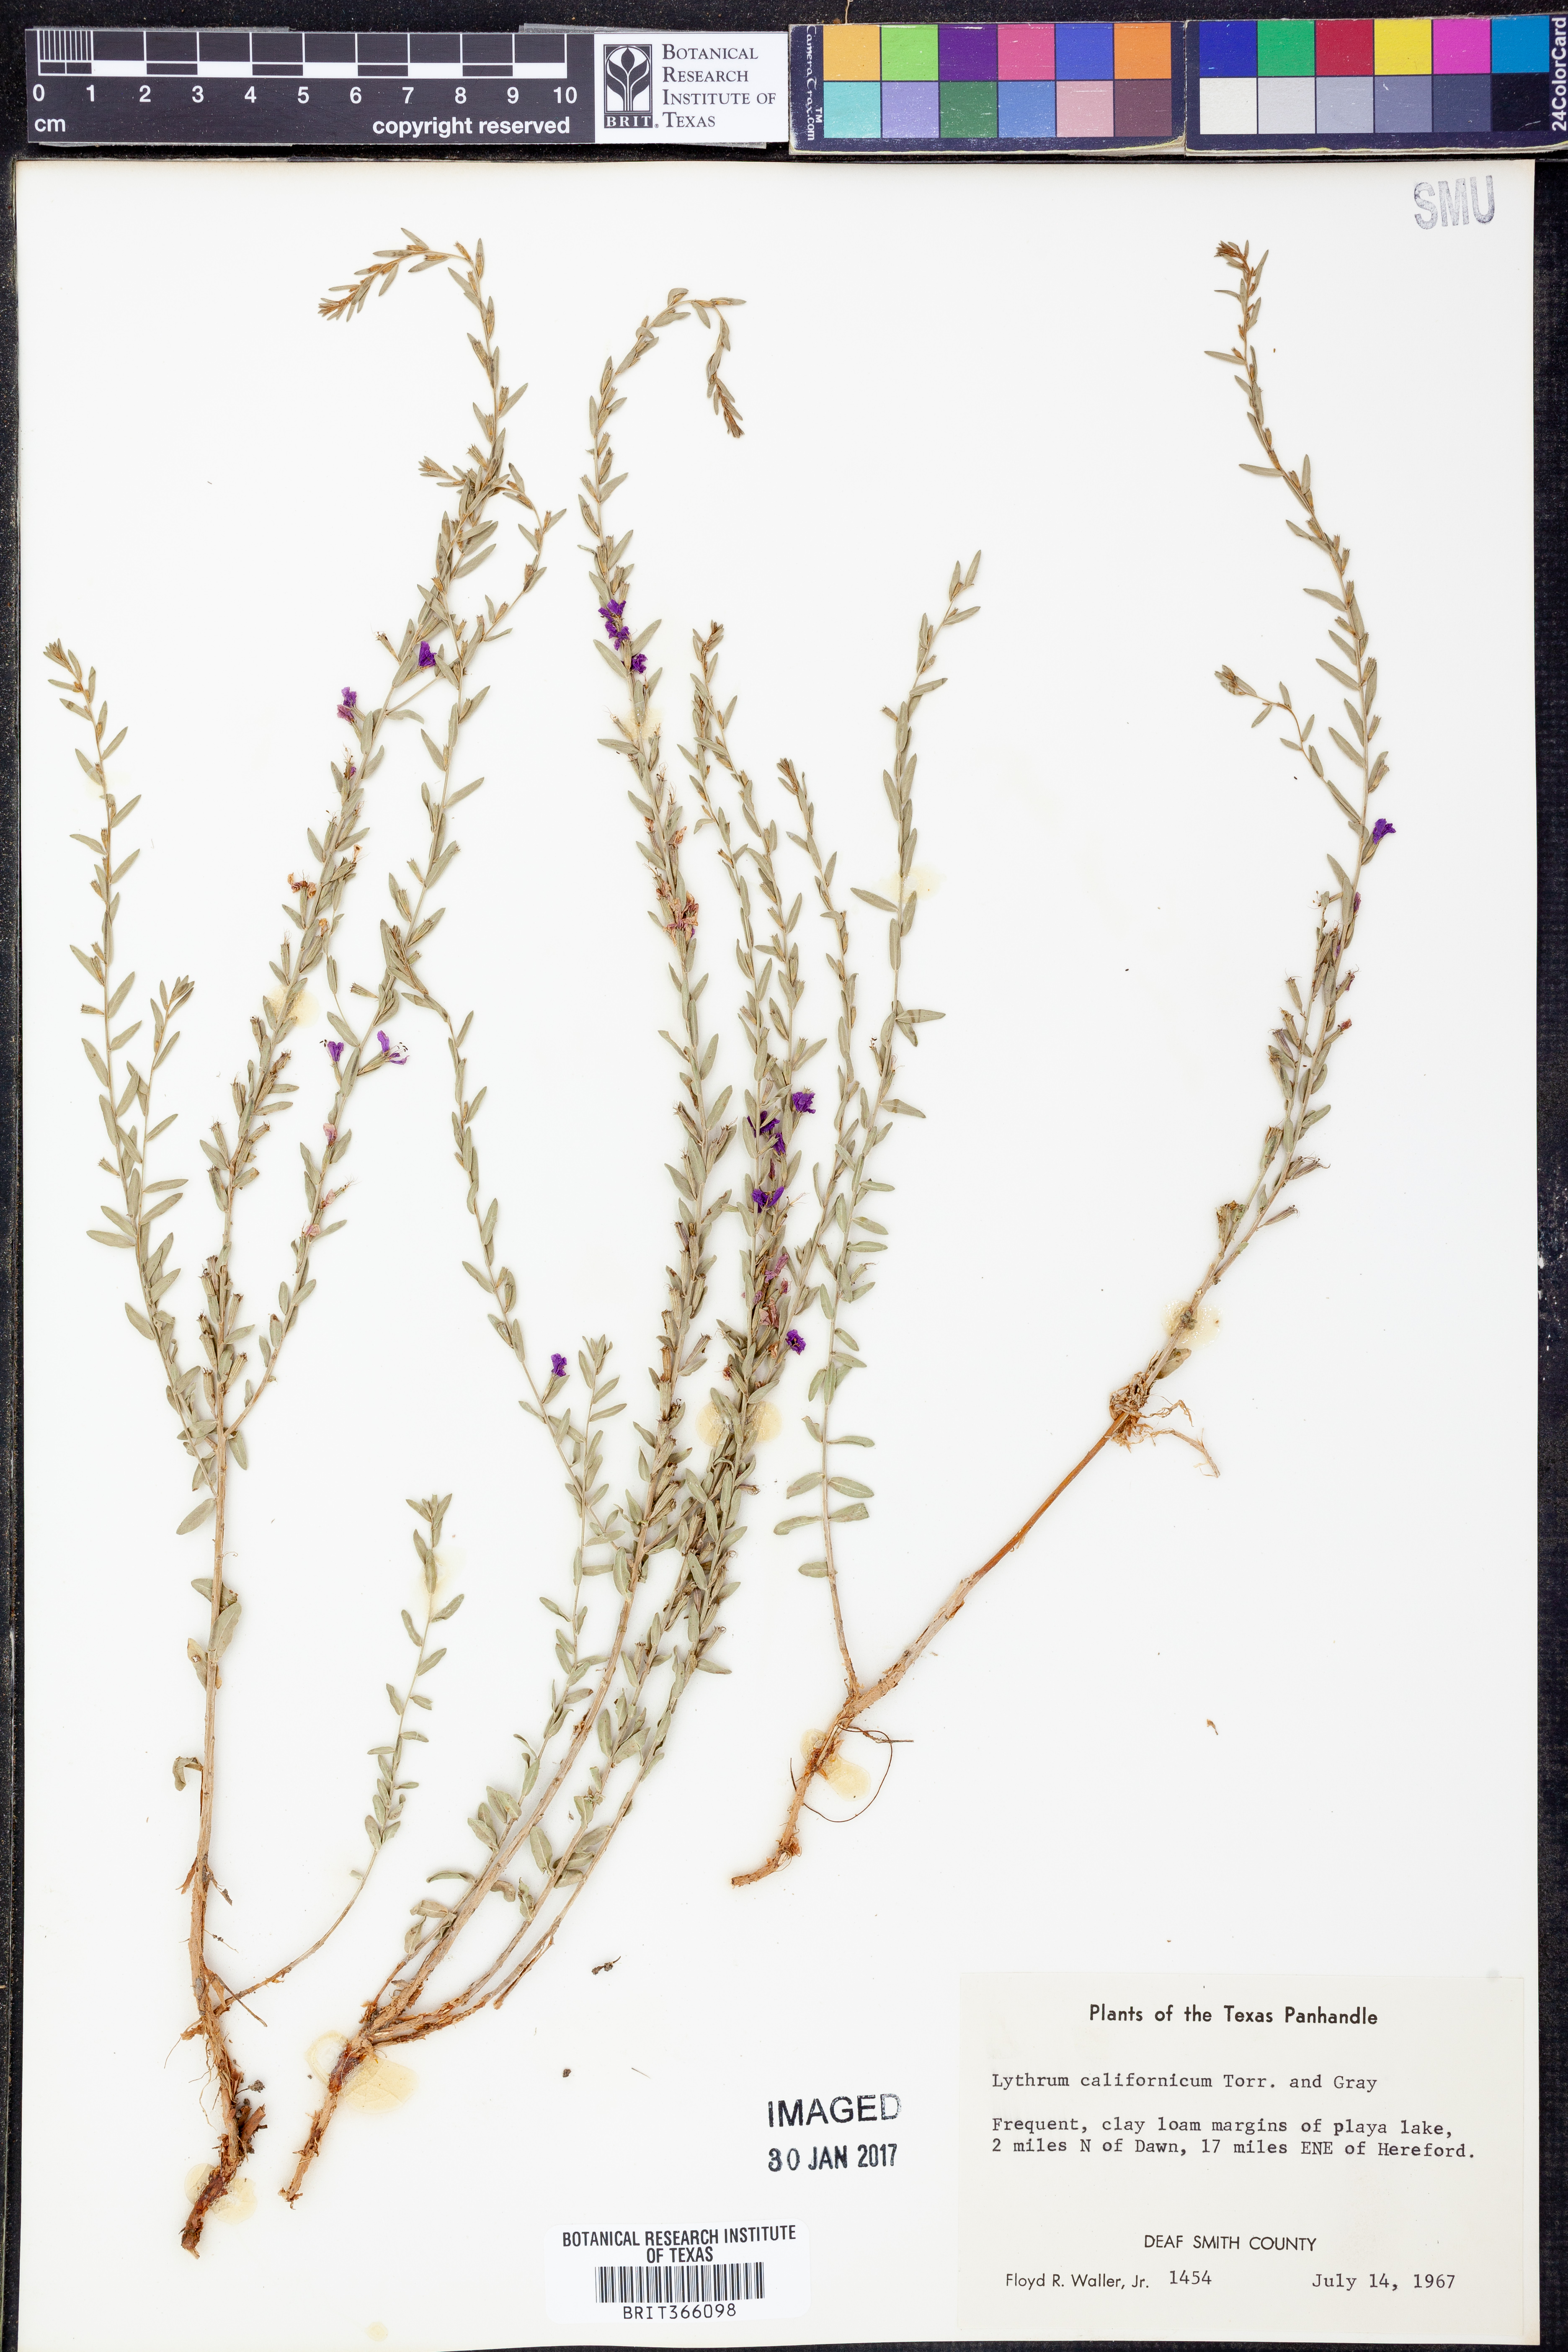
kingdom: Plantae
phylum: Tracheophyta
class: Magnoliopsida
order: Myrtales
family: Lythraceae
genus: Lythrum
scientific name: Lythrum californicum
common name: California loosestrife
